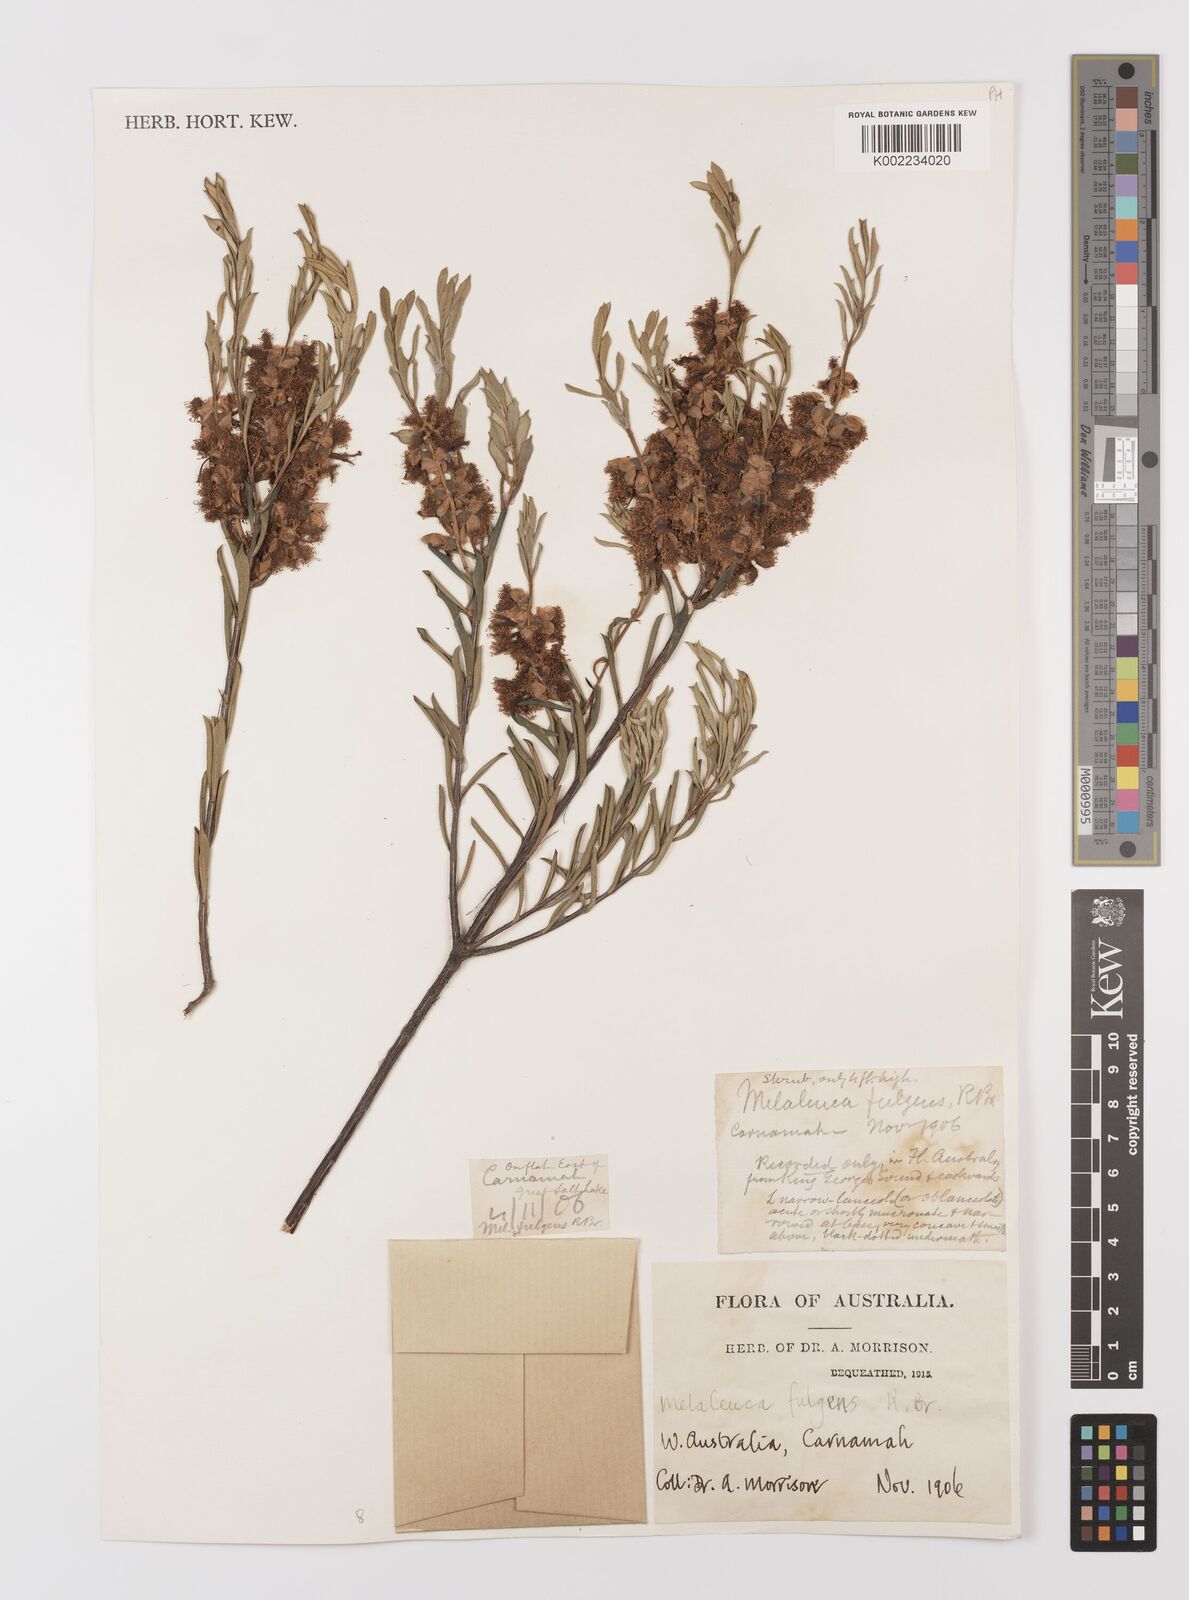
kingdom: Plantae
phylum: Tracheophyta
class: Magnoliopsida
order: Myrtales
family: Myrtaceae
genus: Melaleuca
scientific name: Melaleuca fulgens
